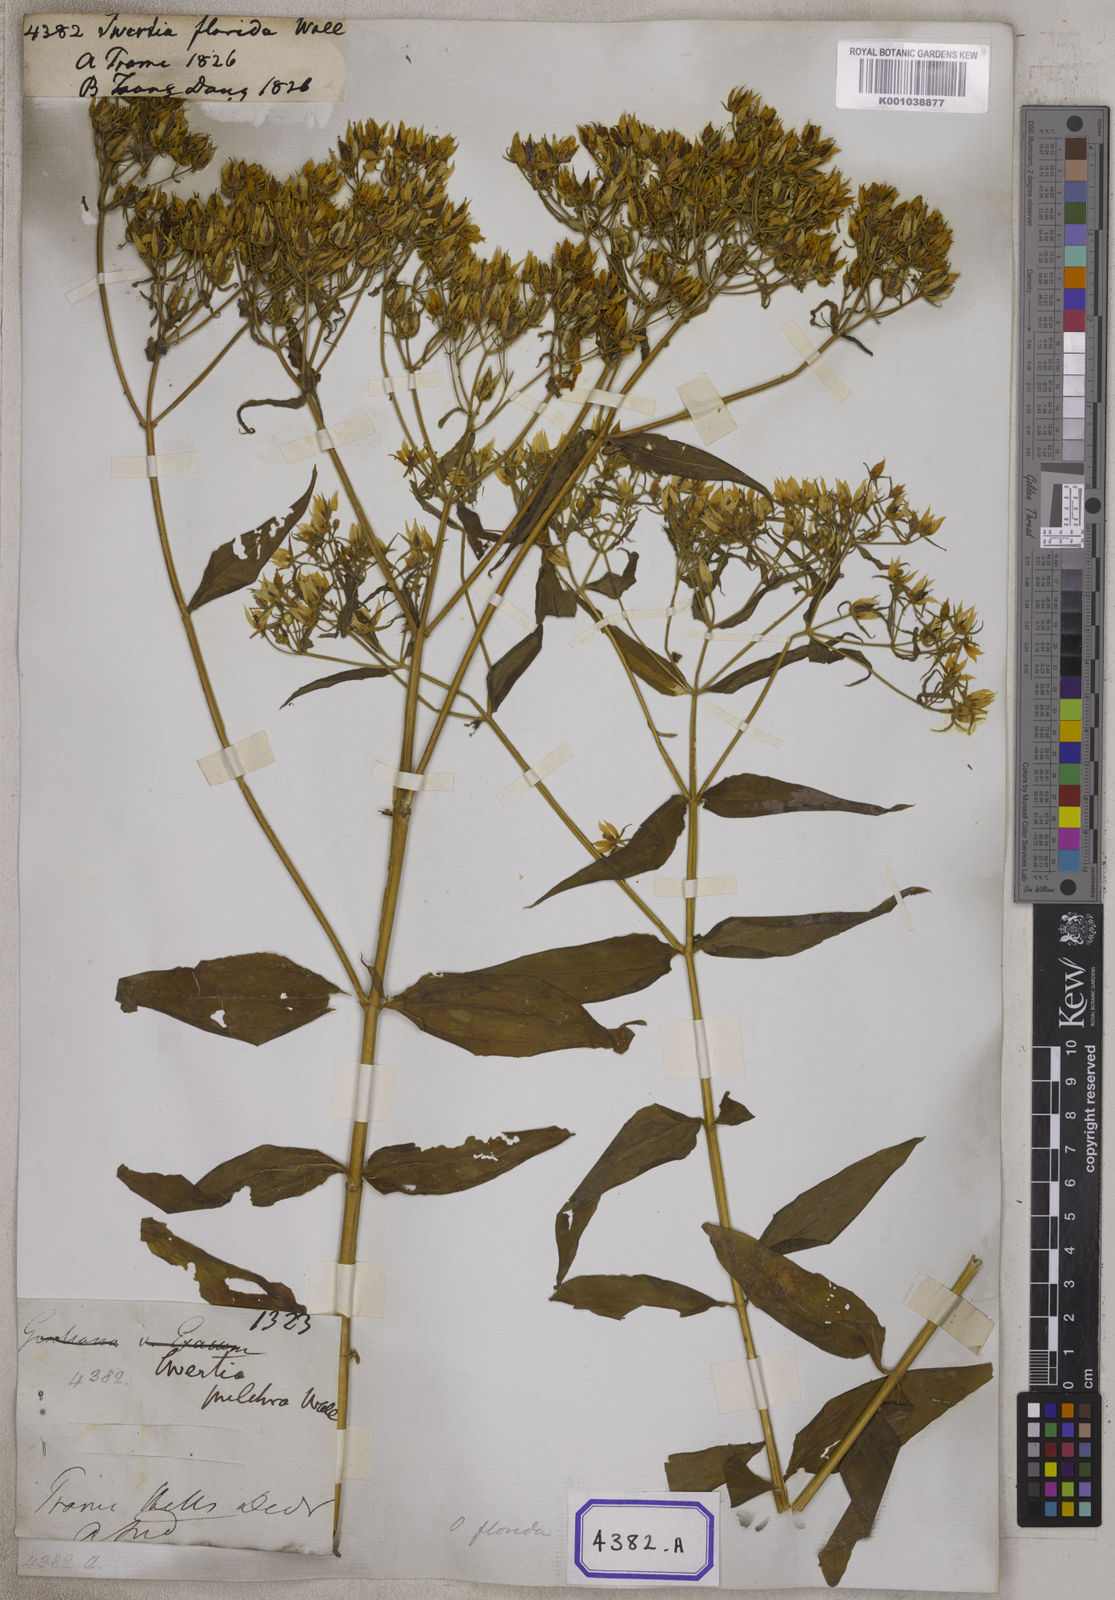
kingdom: Plantae
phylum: Tracheophyta
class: Magnoliopsida
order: Gentianales
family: Gentianaceae
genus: Swertia
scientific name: Swertia angustifolia
